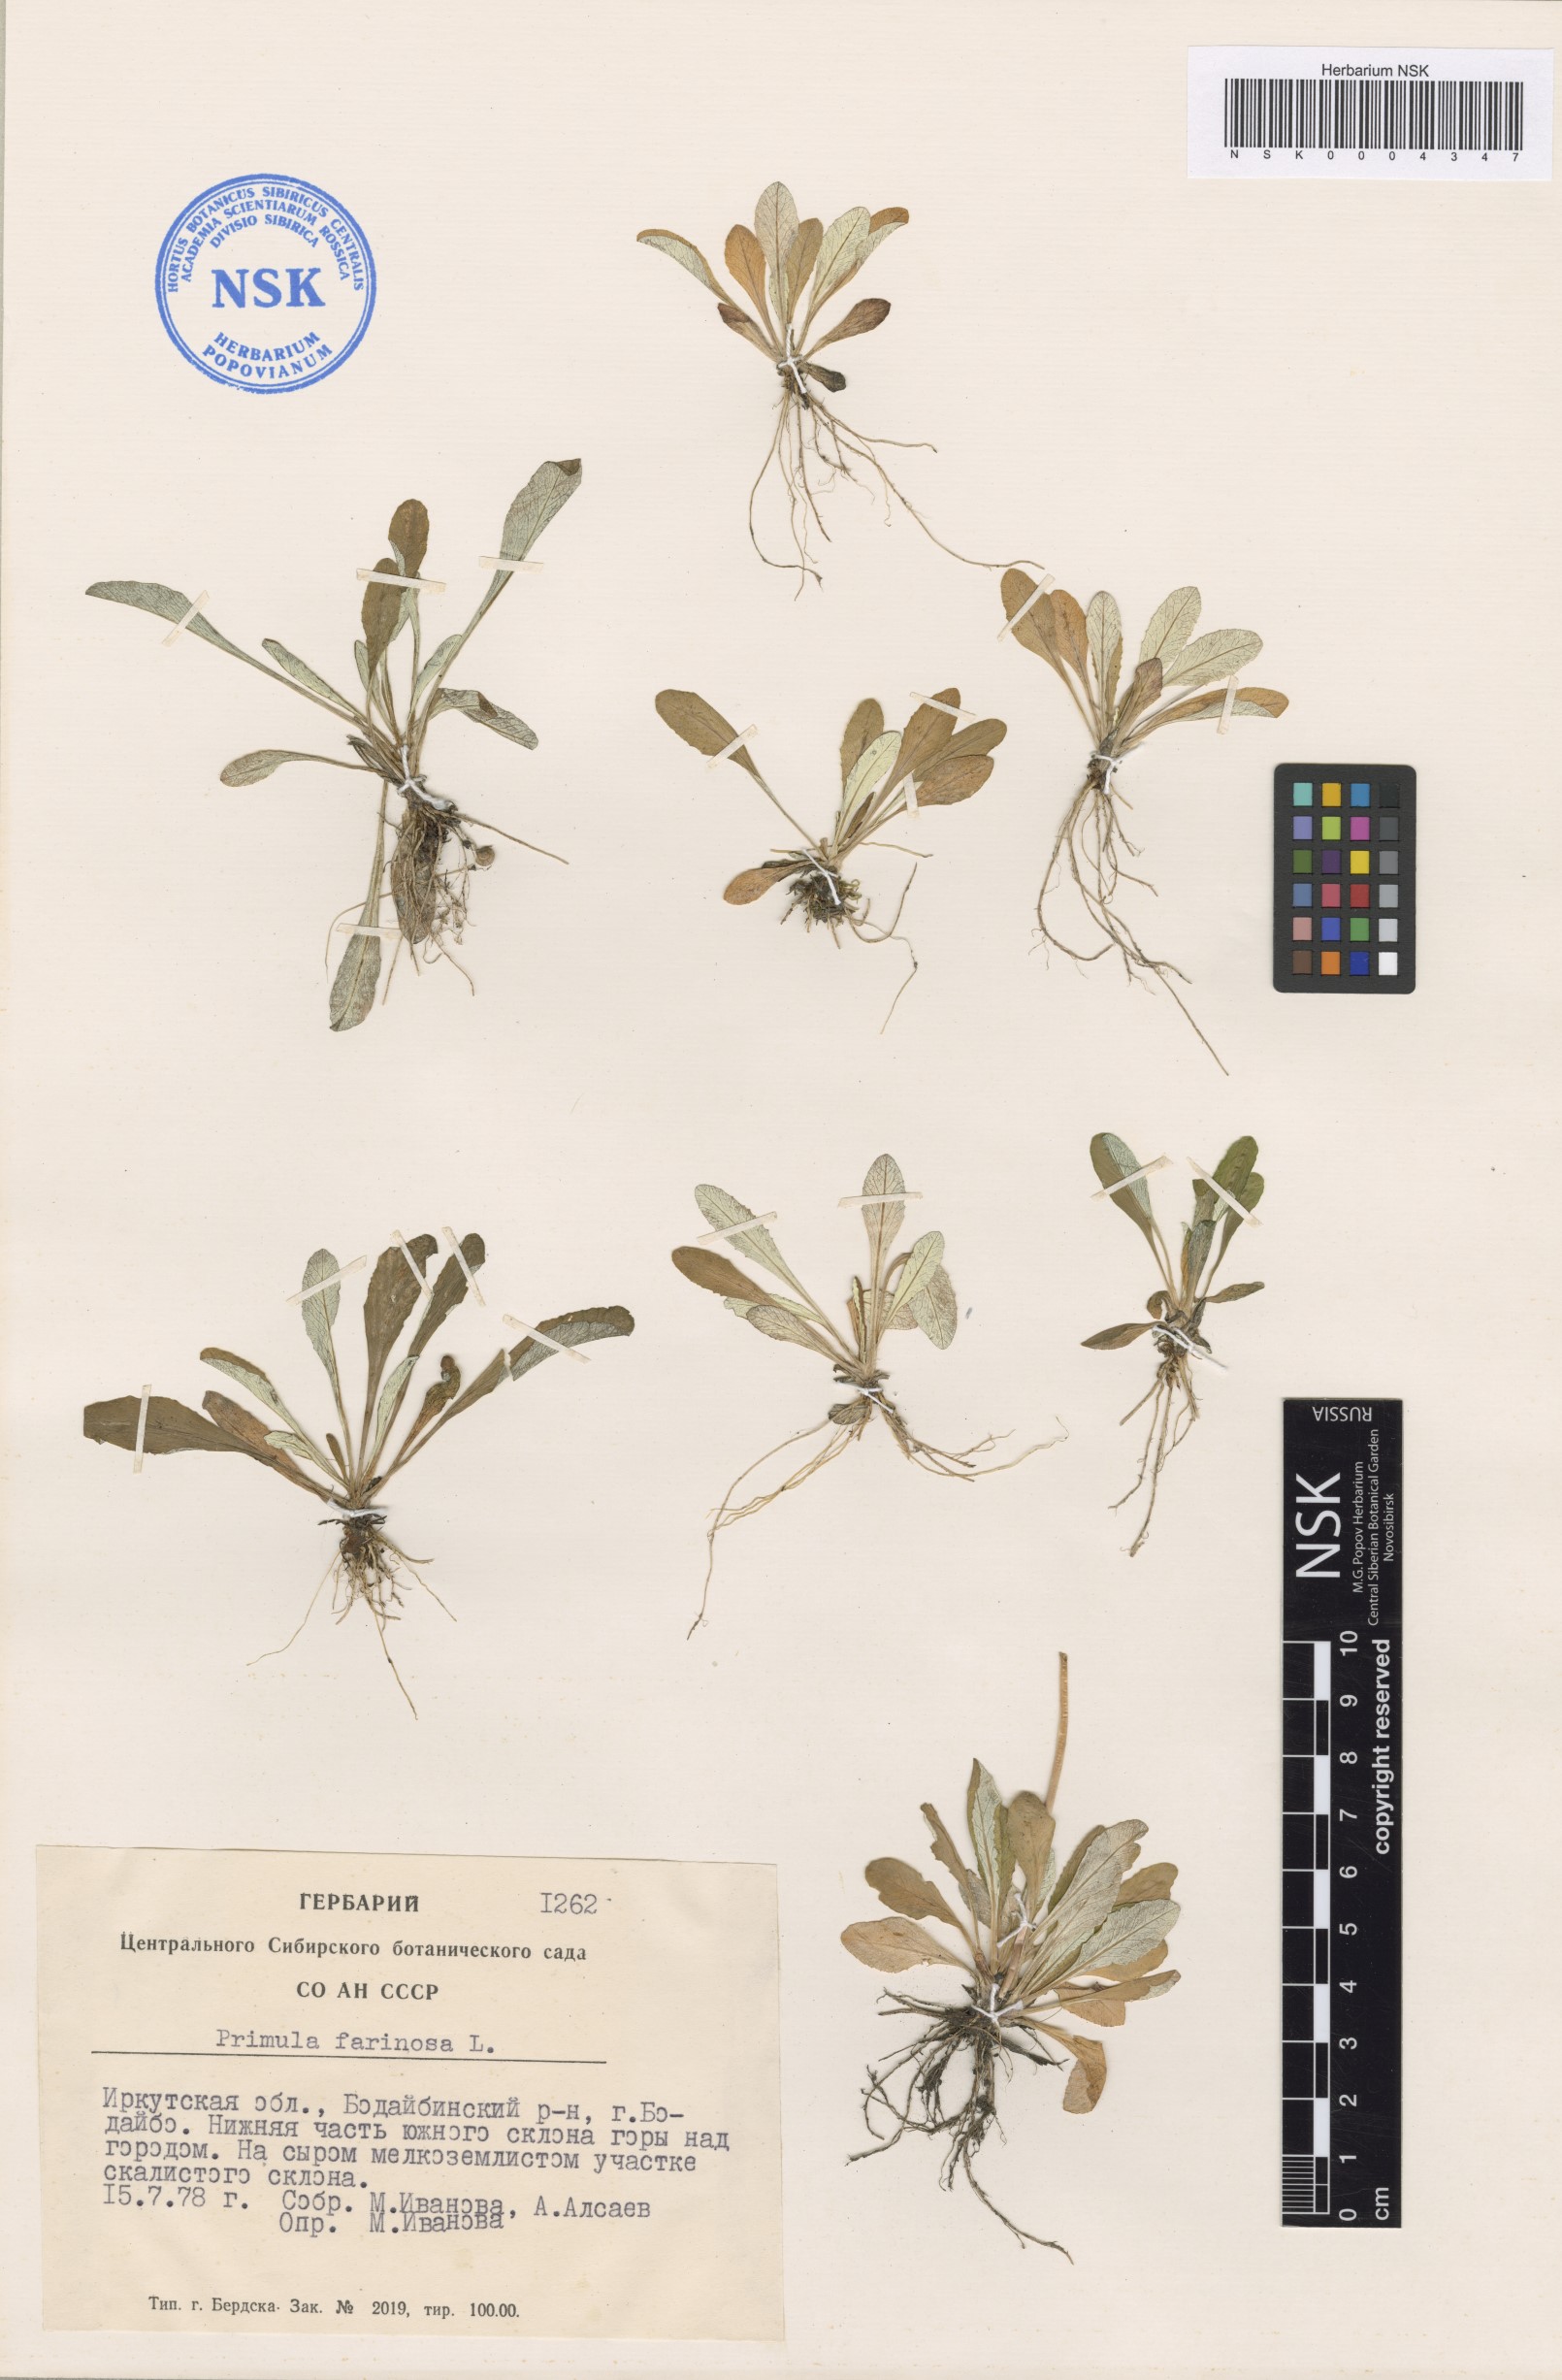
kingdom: Plantae
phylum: Tracheophyta
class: Magnoliopsida
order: Ericales
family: Primulaceae
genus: Primula
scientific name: Primula farinosa
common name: Bird's-eye primrose
